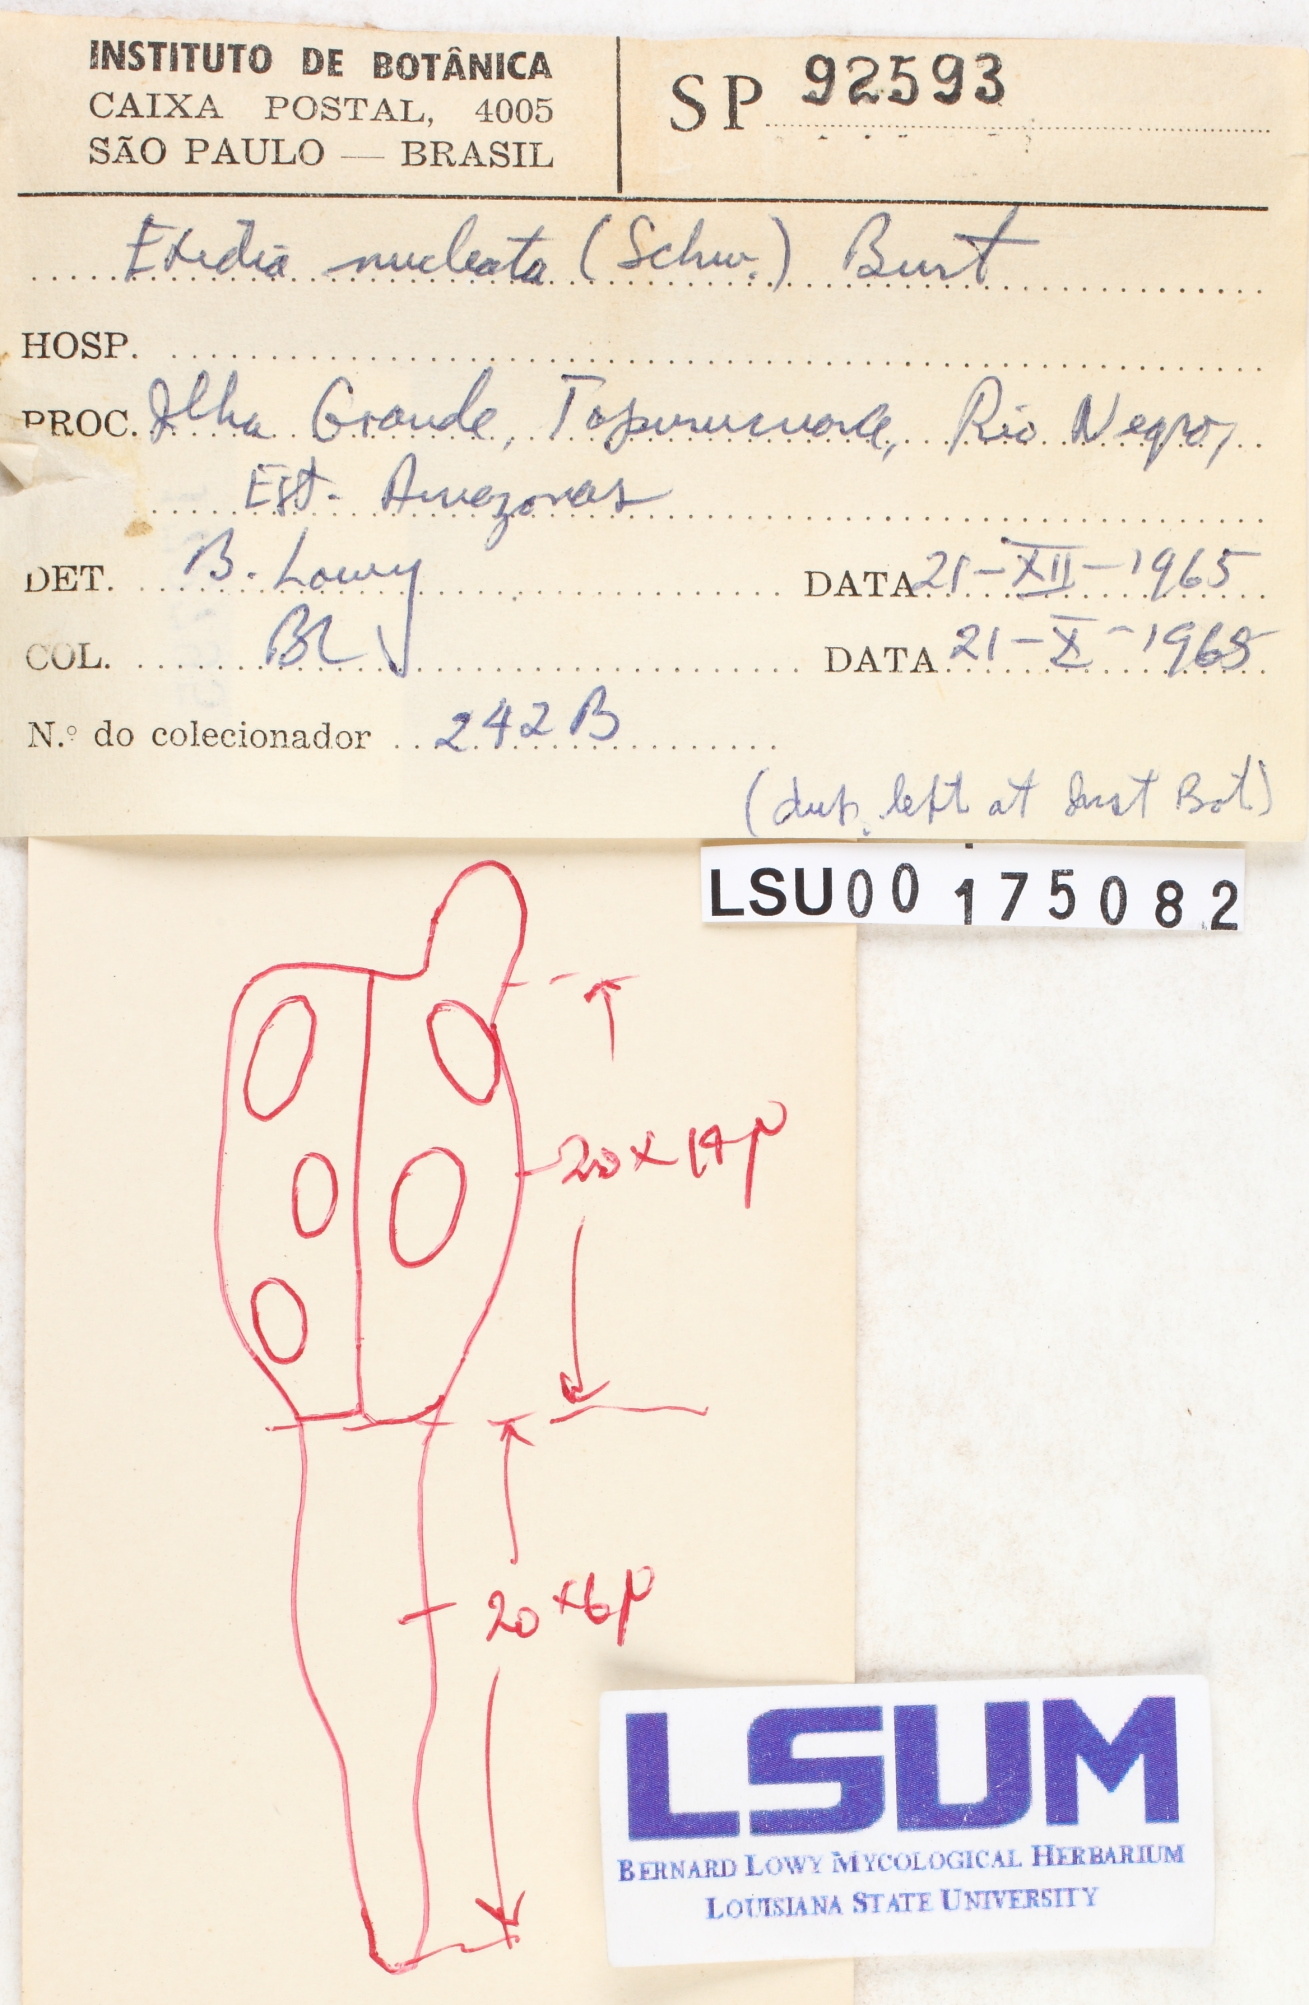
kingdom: Fungi
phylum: Basidiomycota
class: Agaricomycetes
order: Auriculariales
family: Hyaloriaceae
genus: Myxarium
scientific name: Myxarium nucleatum
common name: Crystal brain fungus
